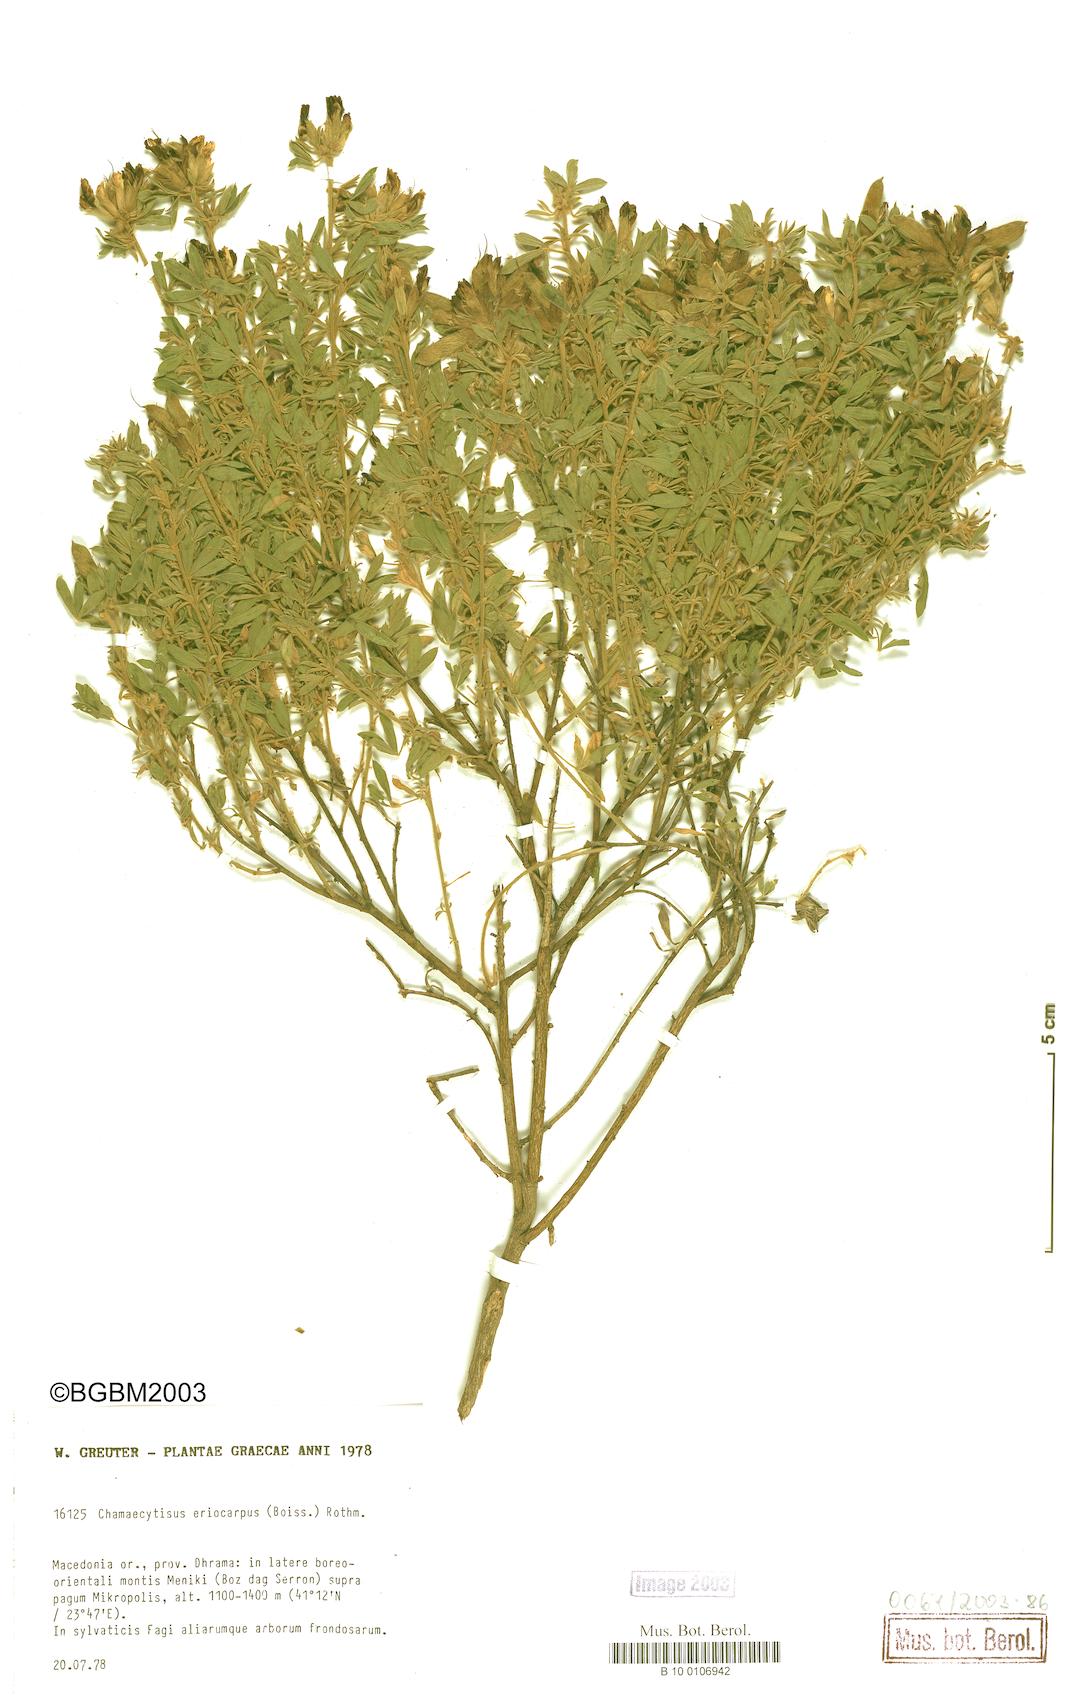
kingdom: Plantae
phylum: Tracheophyta
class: Magnoliopsida
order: Fabales
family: Fabaceae
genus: Chamaecytisus
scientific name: Chamaecytisus eriocarpus
